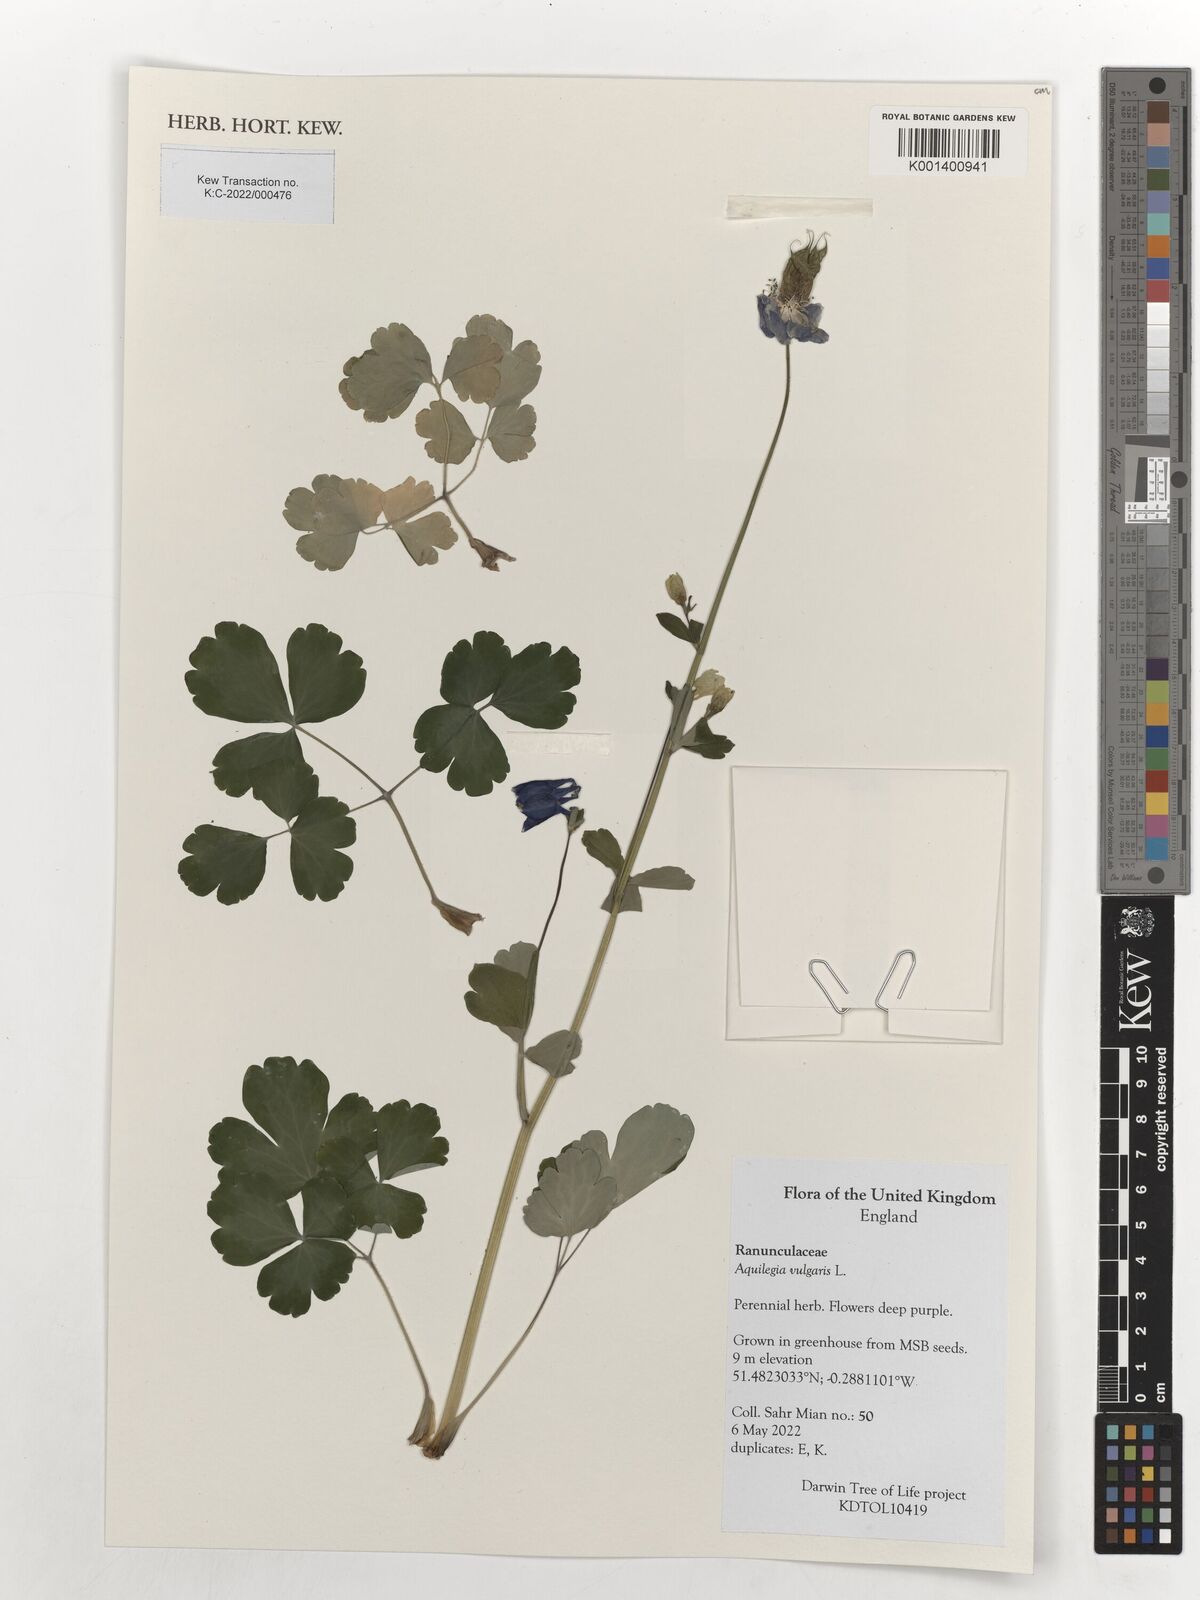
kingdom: Plantae
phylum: Tracheophyta
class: Magnoliopsida
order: Ranunculales
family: Ranunculaceae
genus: Aquilegia
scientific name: Aquilegia vulgaris
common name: Columbine
